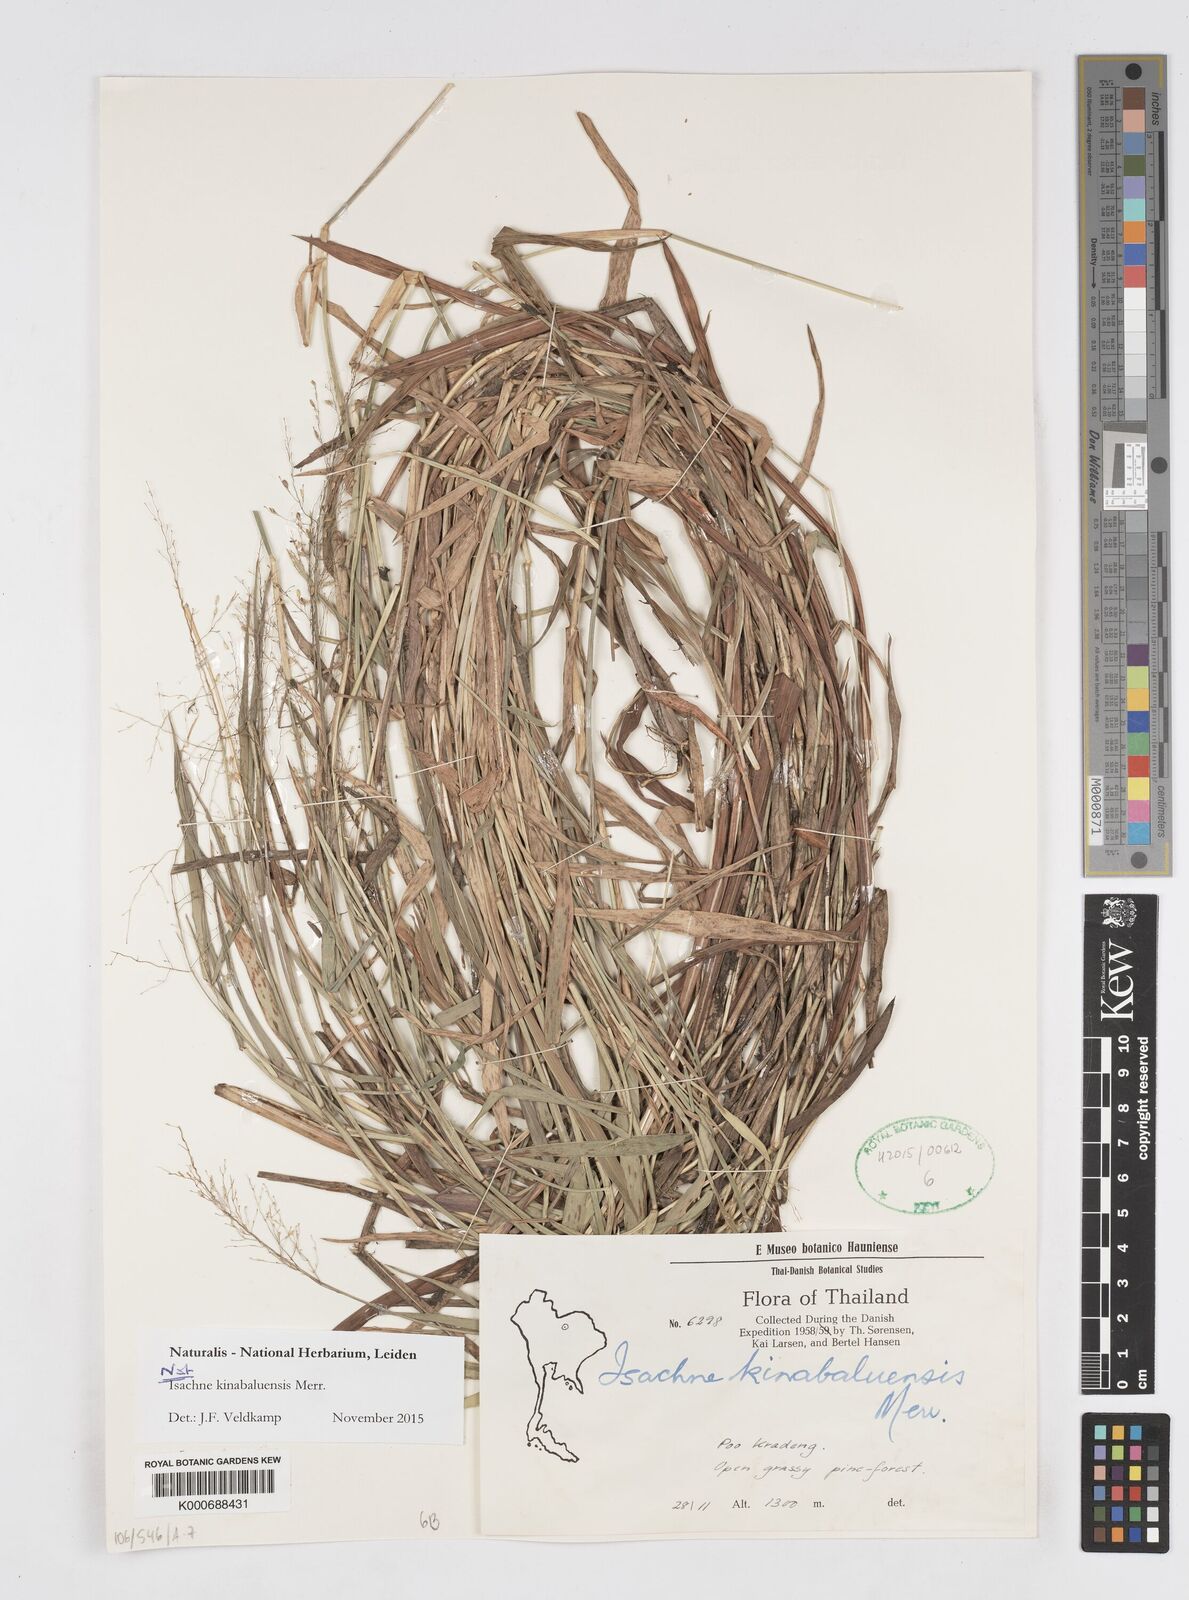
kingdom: Plantae
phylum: Tracheophyta
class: Liliopsida
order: Poales
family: Poaceae
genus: Isachne
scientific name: Isachne kinabaluensis
